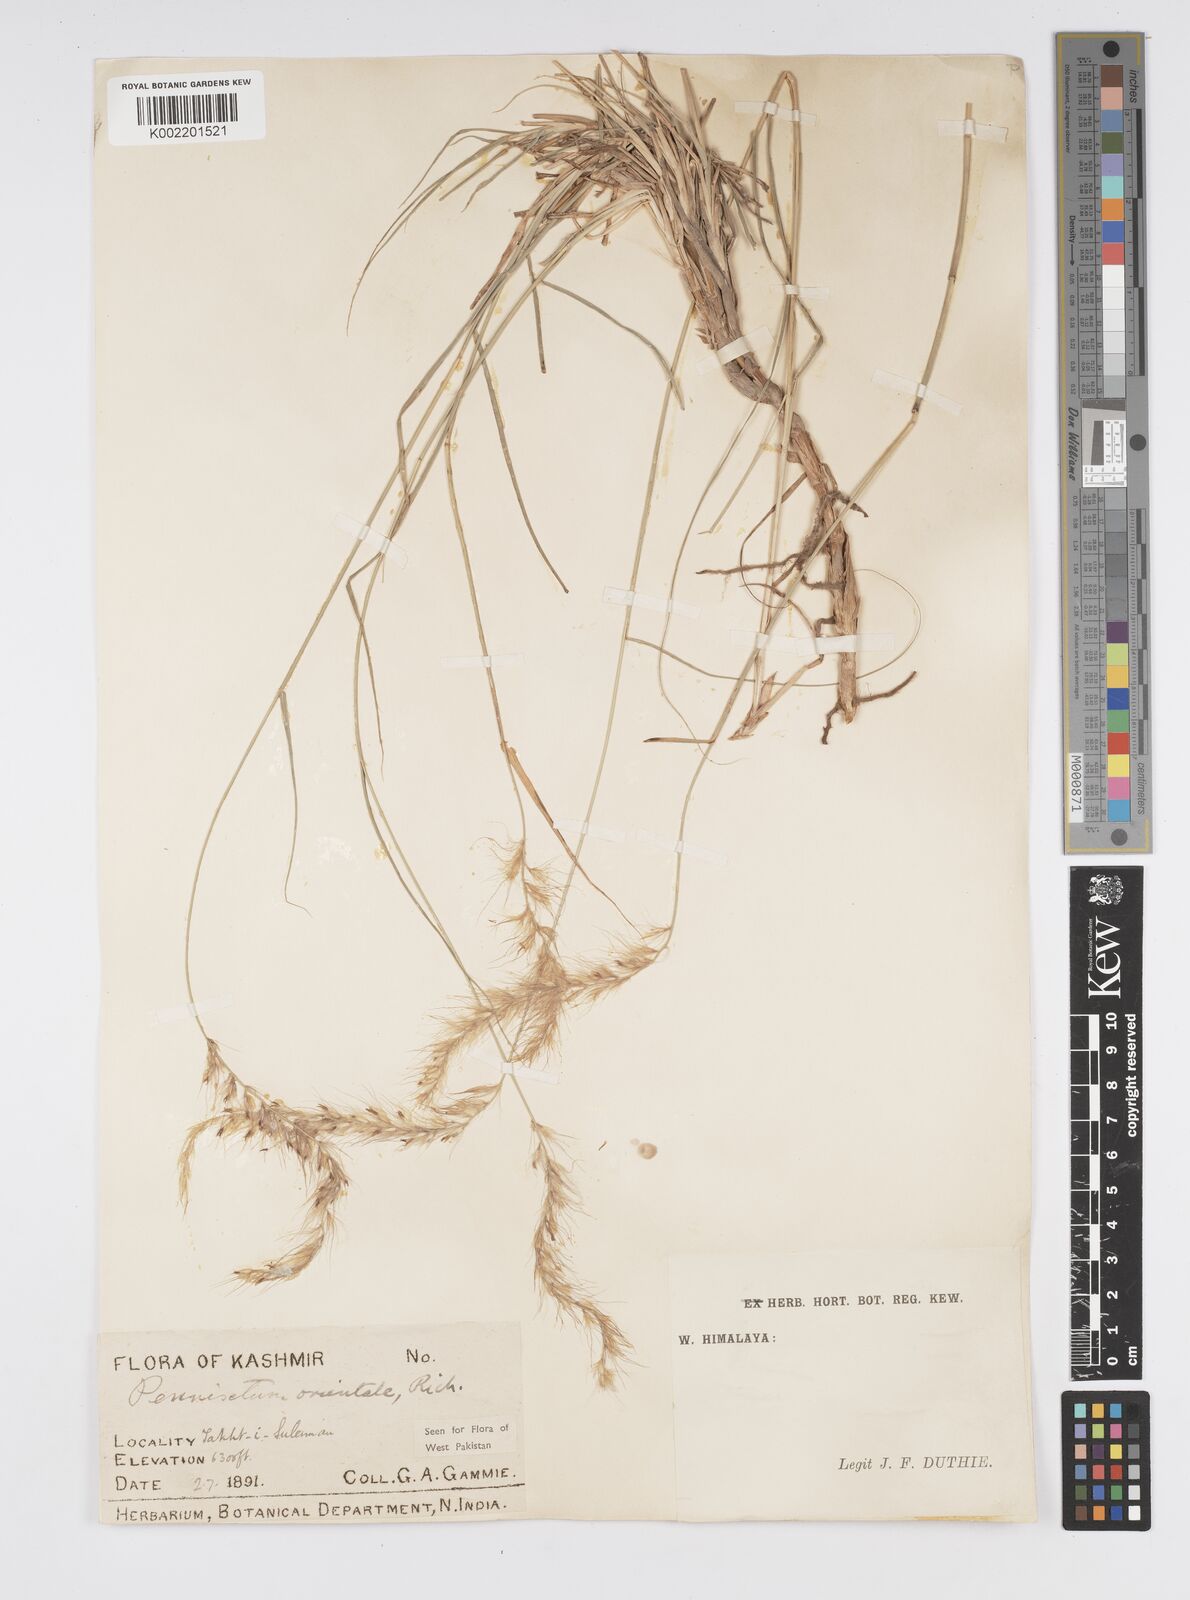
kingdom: Plantae
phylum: Tracheophyta
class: Liliopsida
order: Poales
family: Poaceae
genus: Cenchrus
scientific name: Cenchrus orientalis
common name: Oriental fountain grass
